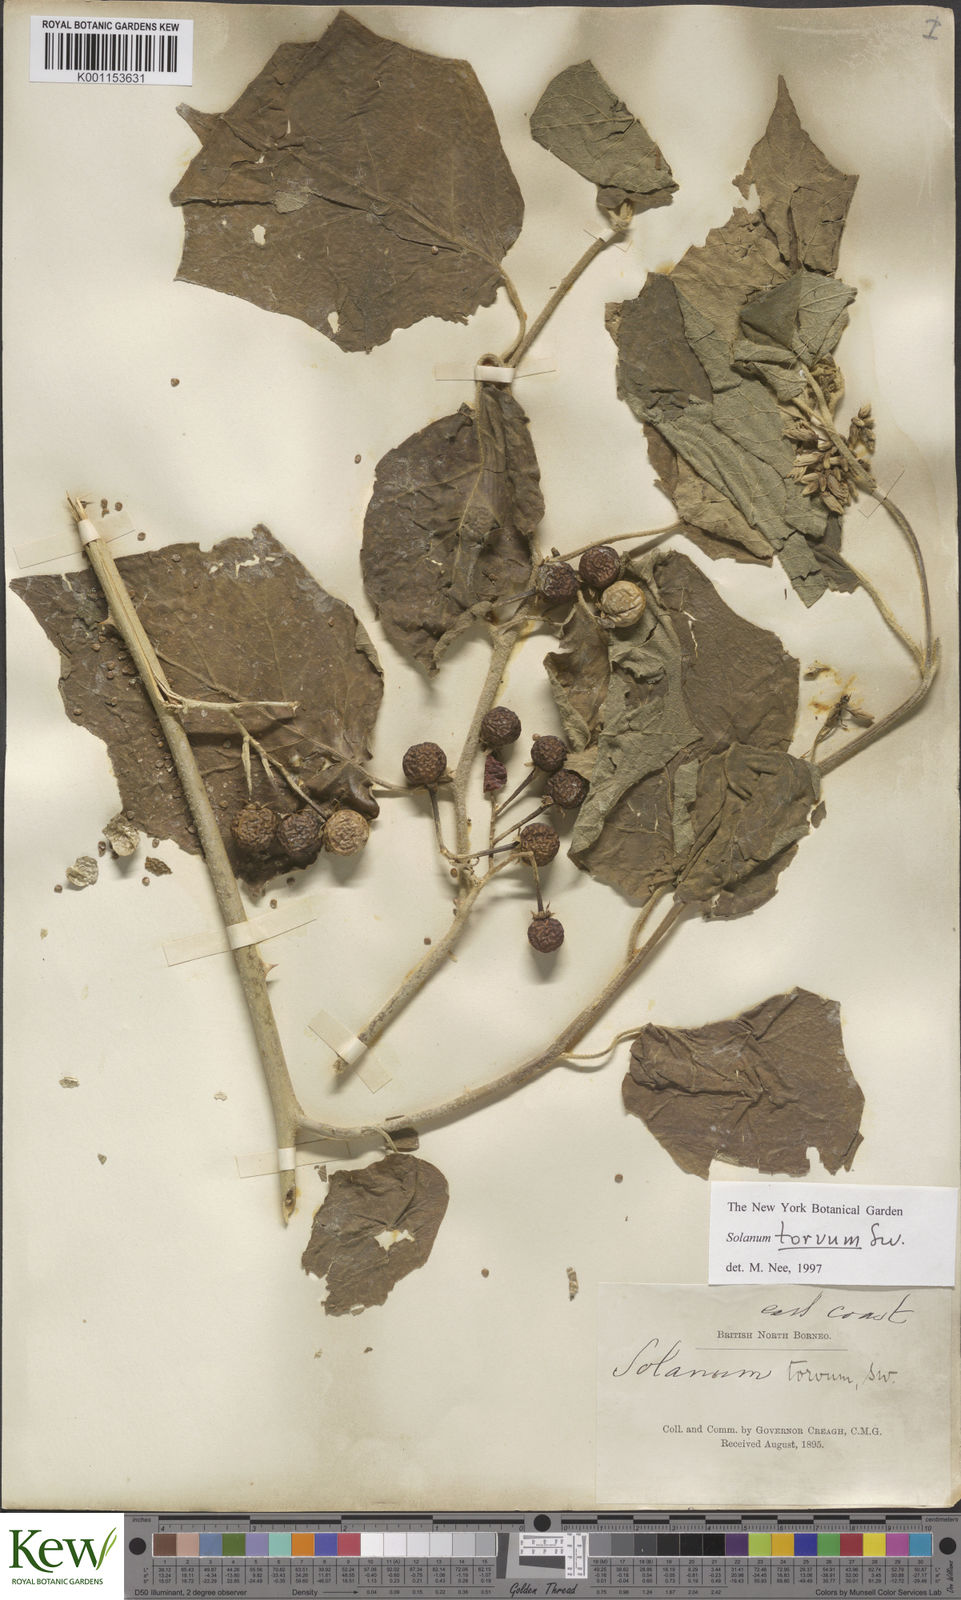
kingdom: Plantae
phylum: Tracheophyta
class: Magnoliopsida
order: Solanales
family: Solanaceae
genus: Solanum
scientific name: Solanum torvum
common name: Turkey berry
